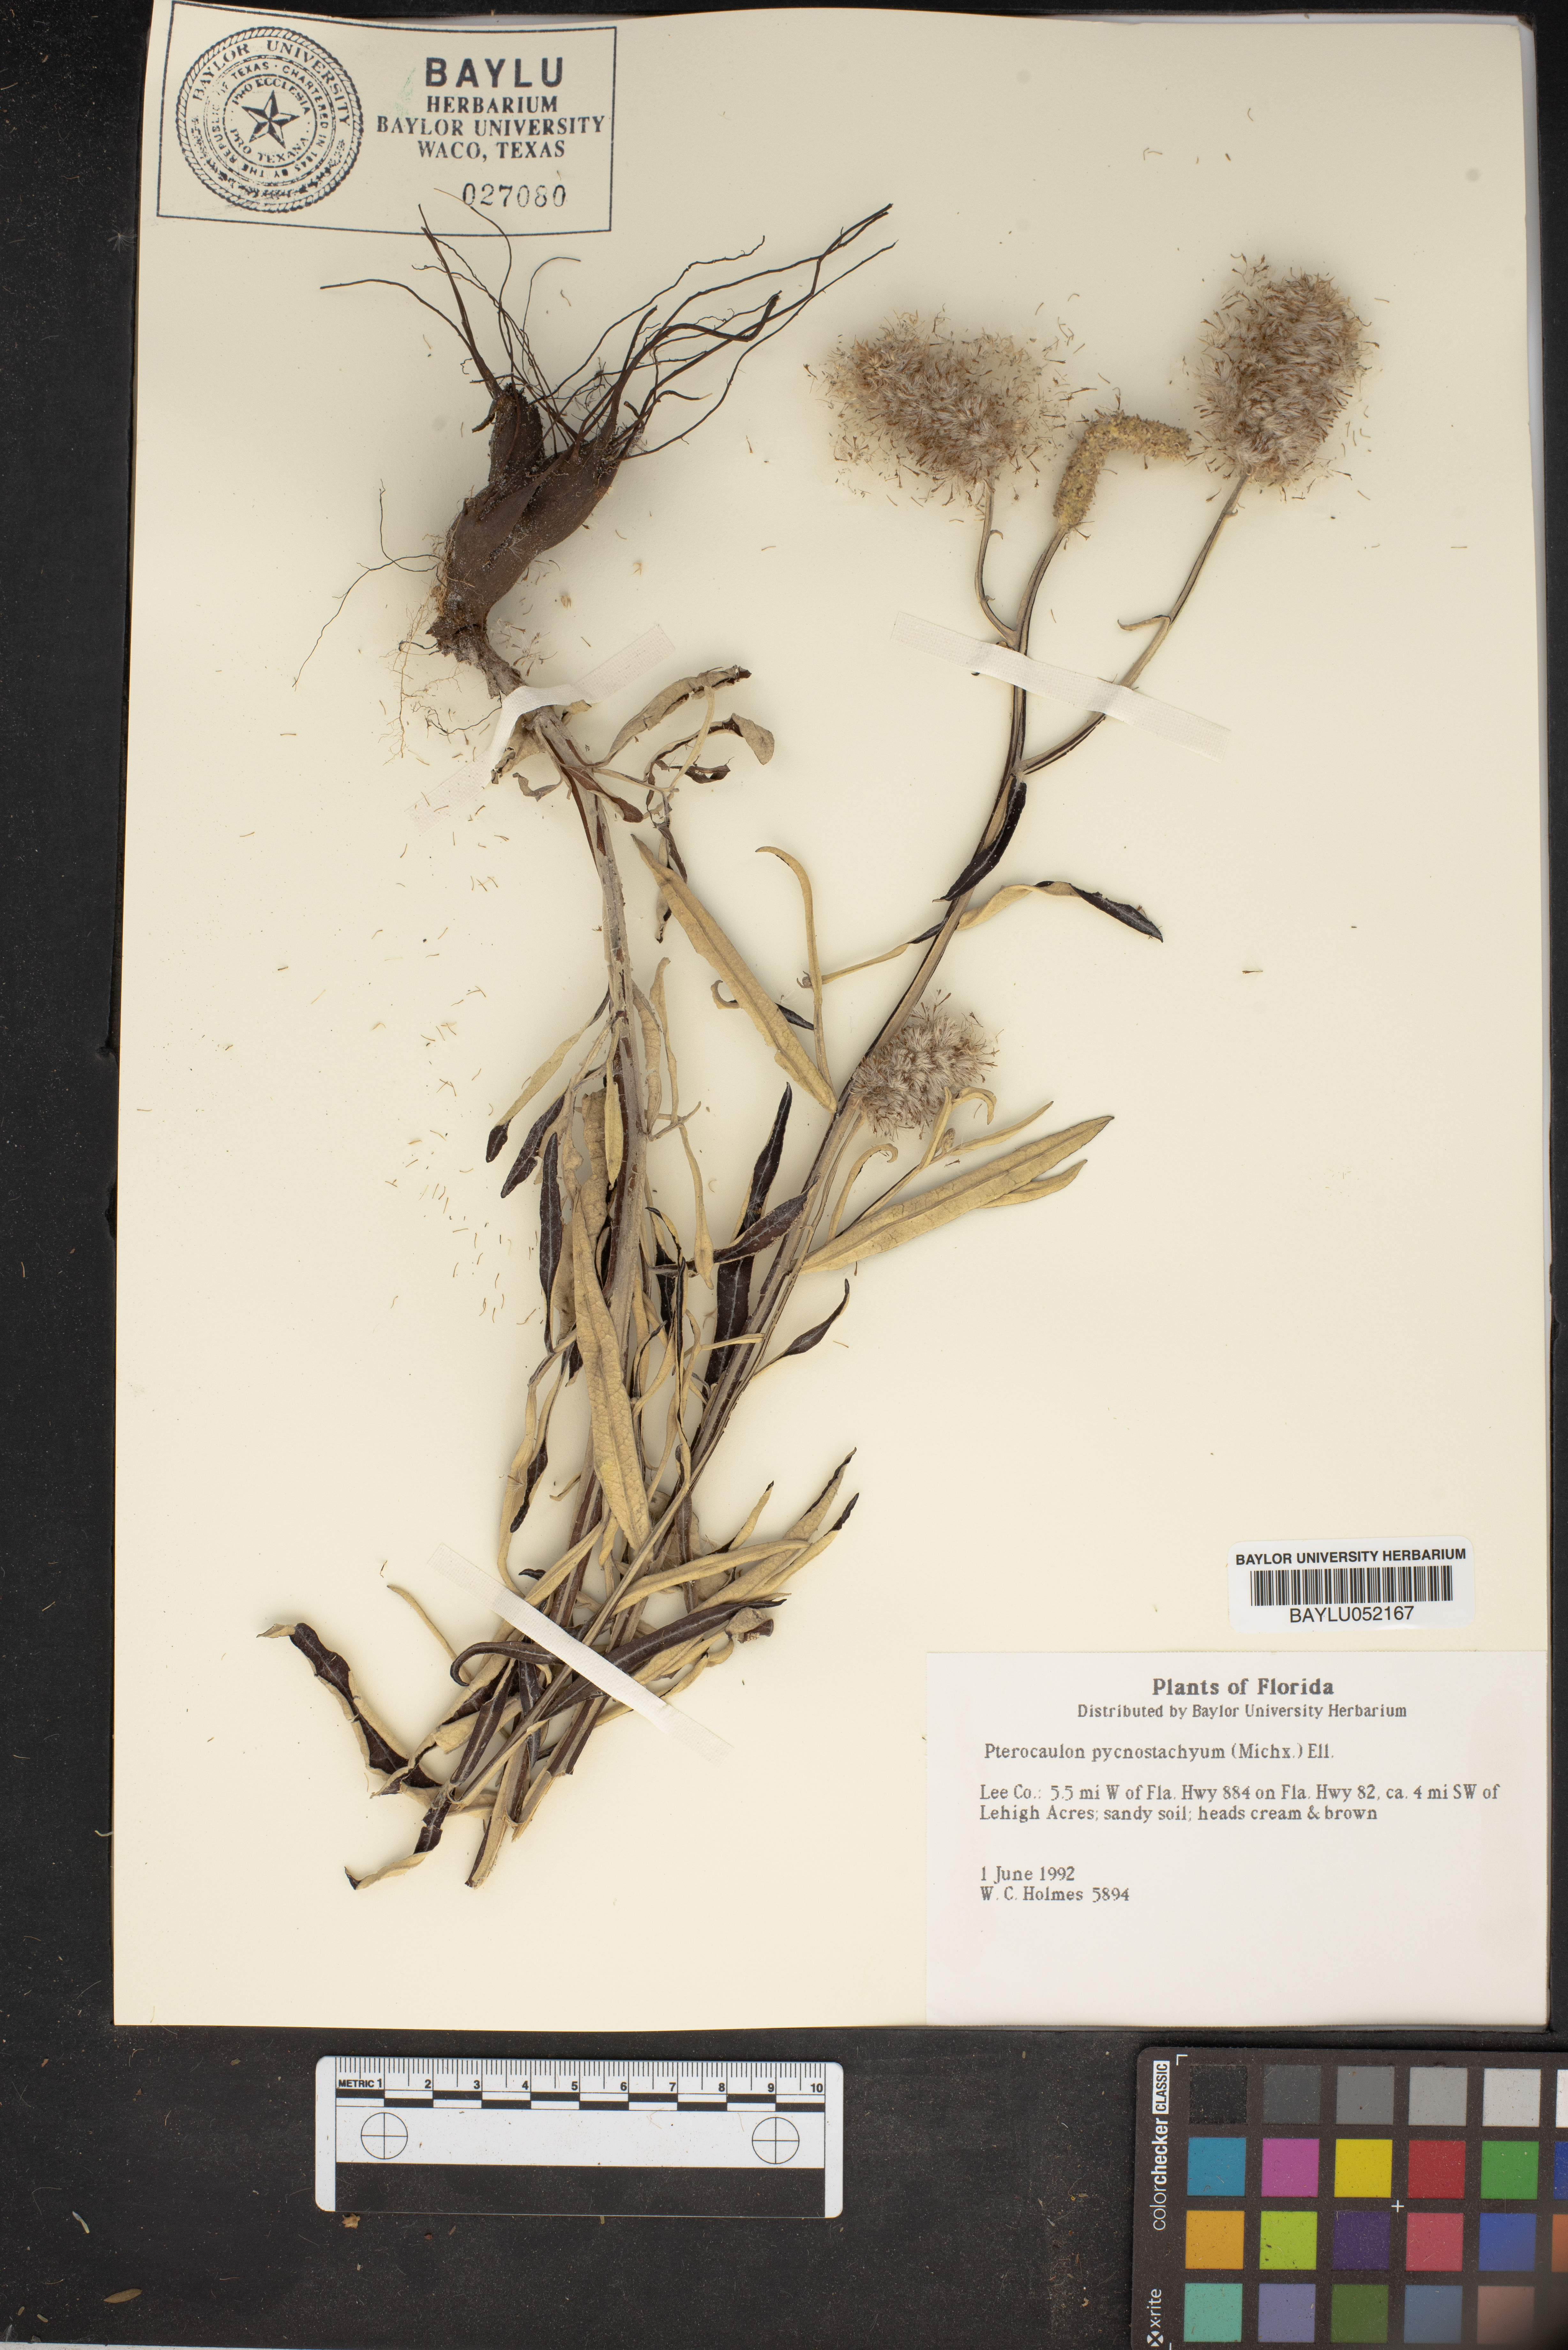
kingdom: Plantae
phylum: Tracheophyta
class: Magnoliopsida
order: Asterales
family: Asteraceae
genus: Pterocaulon
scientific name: Pterocaulon pycnostachyum
